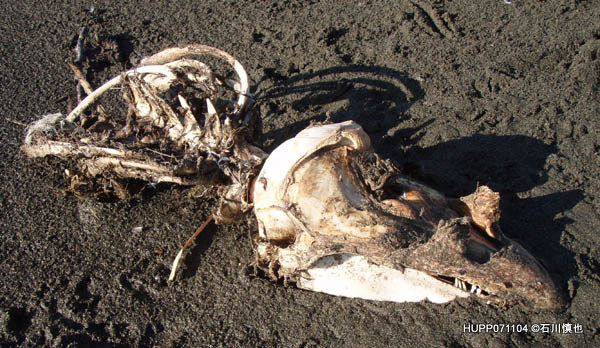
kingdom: Animalia
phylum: Chordata
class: Mammalia
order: Cetacea
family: Phocoenidae
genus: Phocoena
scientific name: Phocoena phocoena
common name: Harbour porpoise
